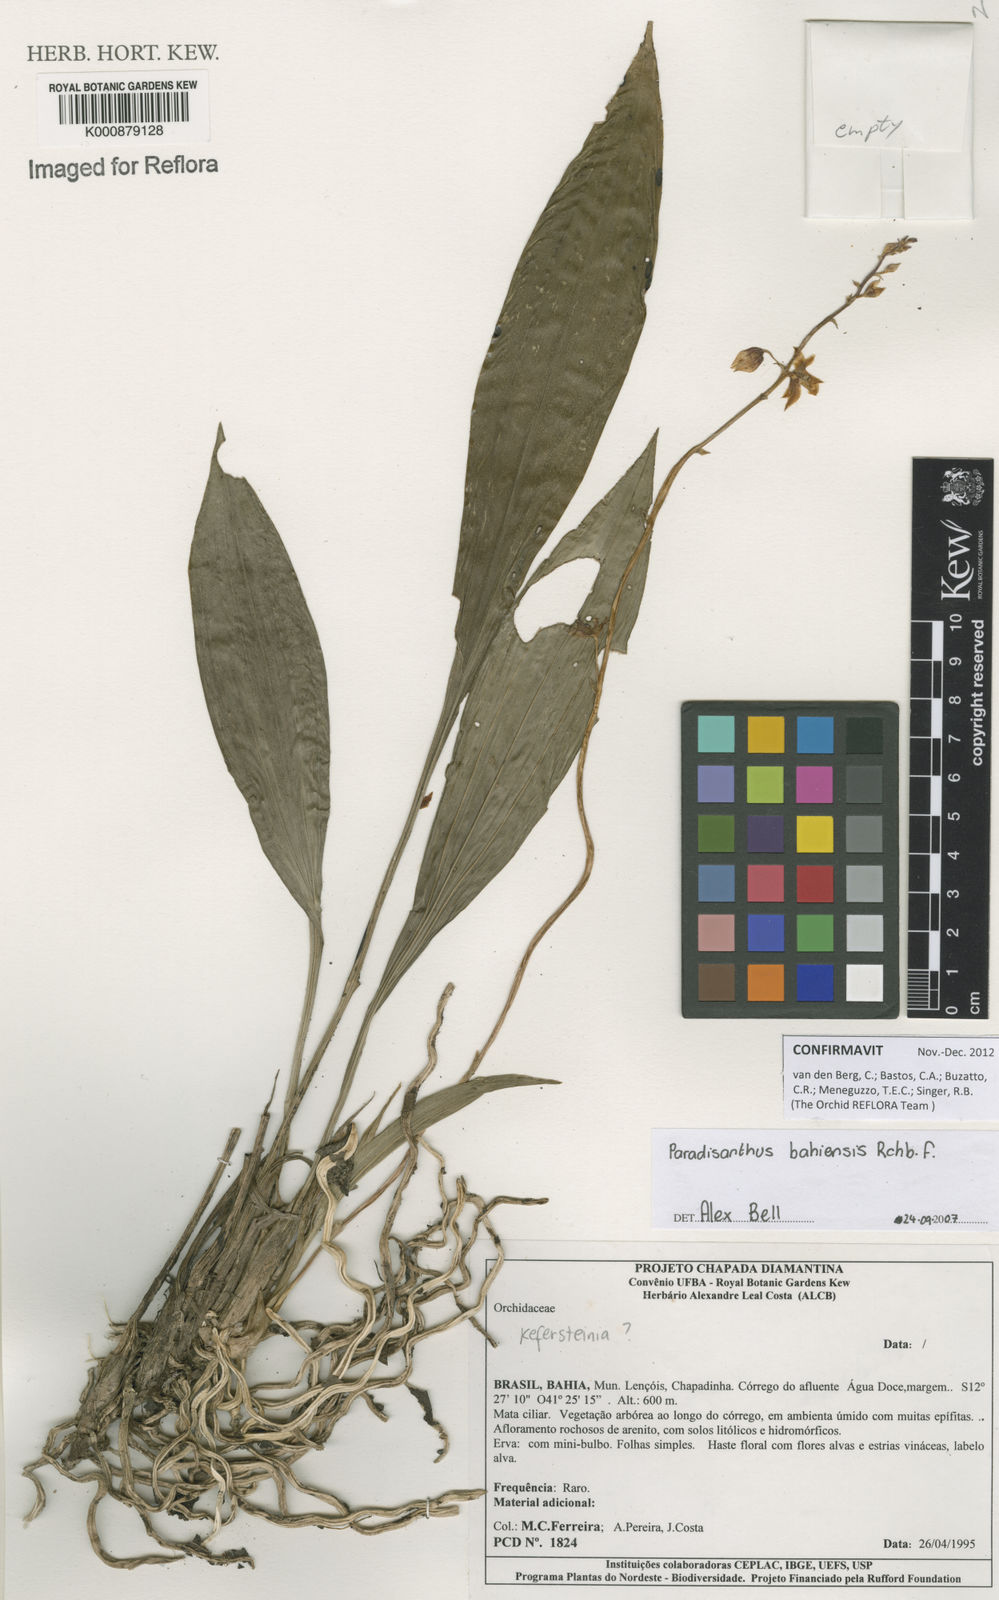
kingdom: Plantae
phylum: Tracheophyta
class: Liliopsida
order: Asparagales
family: Orchidaceae
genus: Paradisanthus
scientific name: Paradisanthus bahiensis
